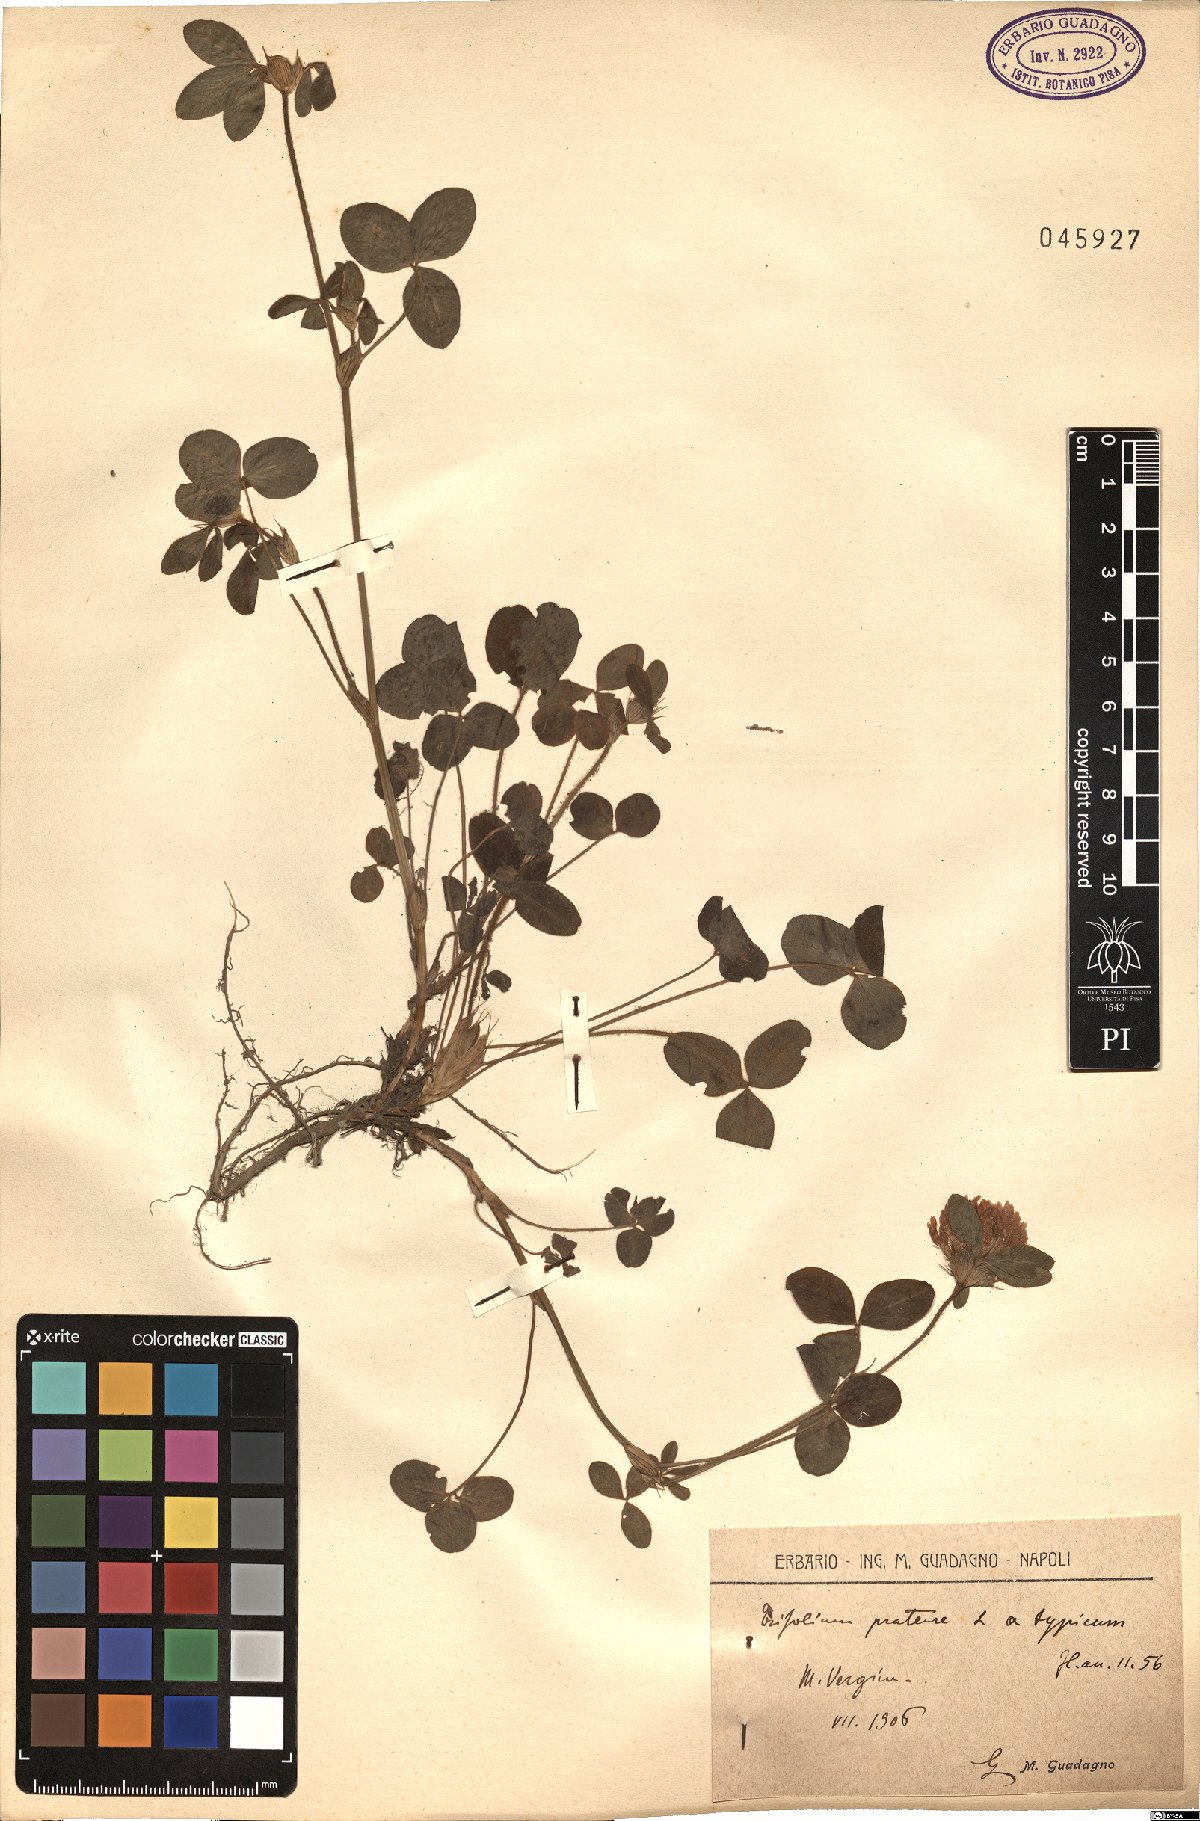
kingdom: Plantae
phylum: Tracheophyta
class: Magnoliopsida
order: Fabales
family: Fabaceae
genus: Trifolium
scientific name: Trifolium pratense
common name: Red clover
